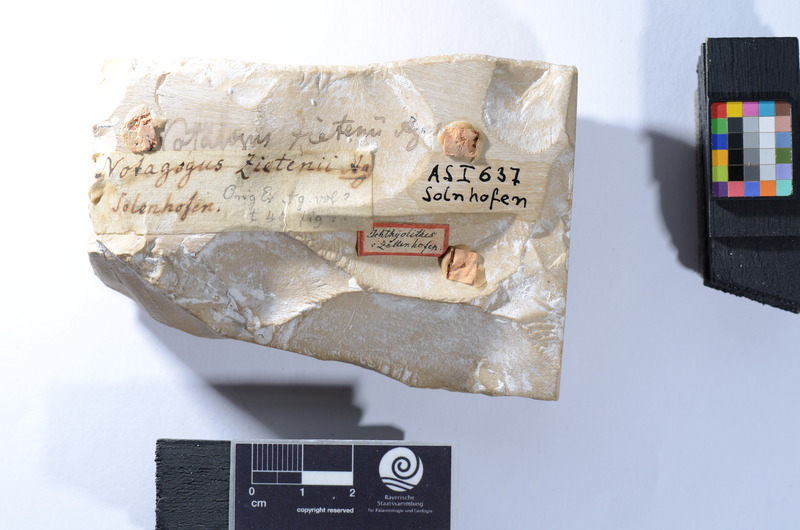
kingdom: Animalia
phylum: Chordata
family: Macrosemiidae
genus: Propterus
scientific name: Propterus microstomus
